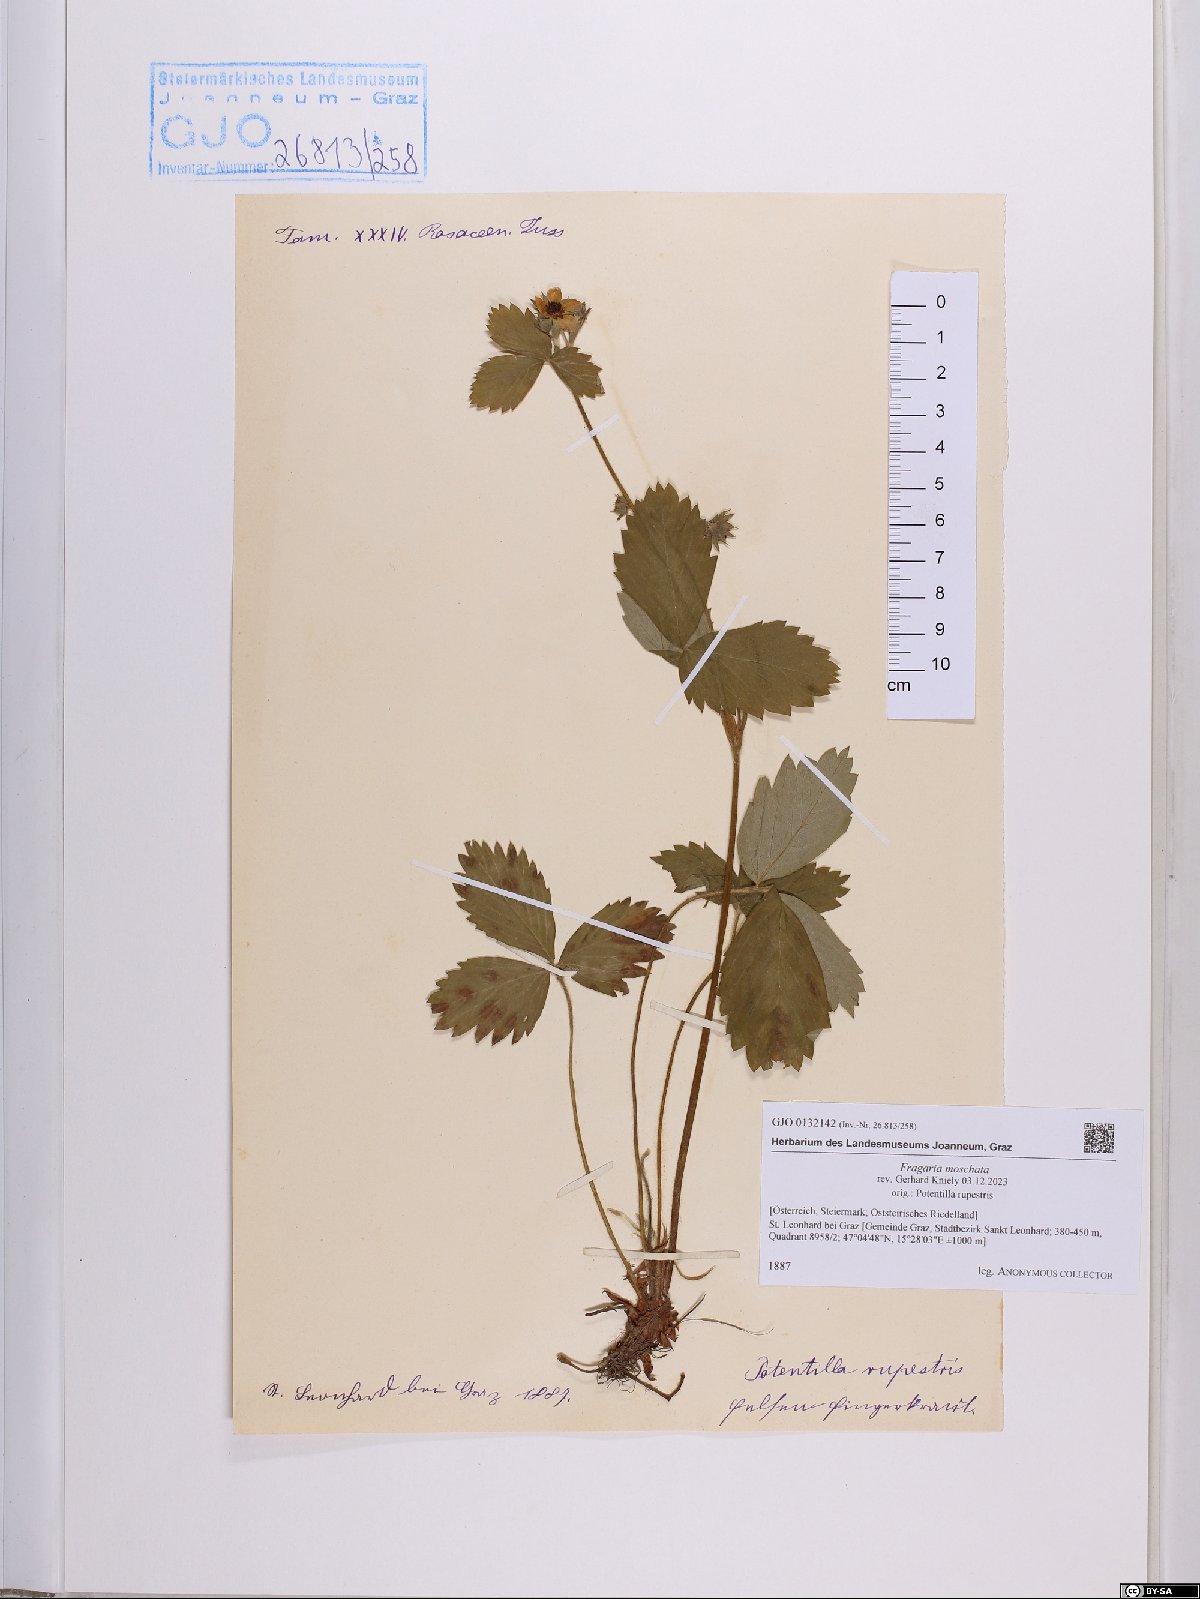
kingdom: Plantae
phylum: Tracheophyta
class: Magnoliopsida
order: Rosales
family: Rosaceae
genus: Fragaria
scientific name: Fragaria moschata
